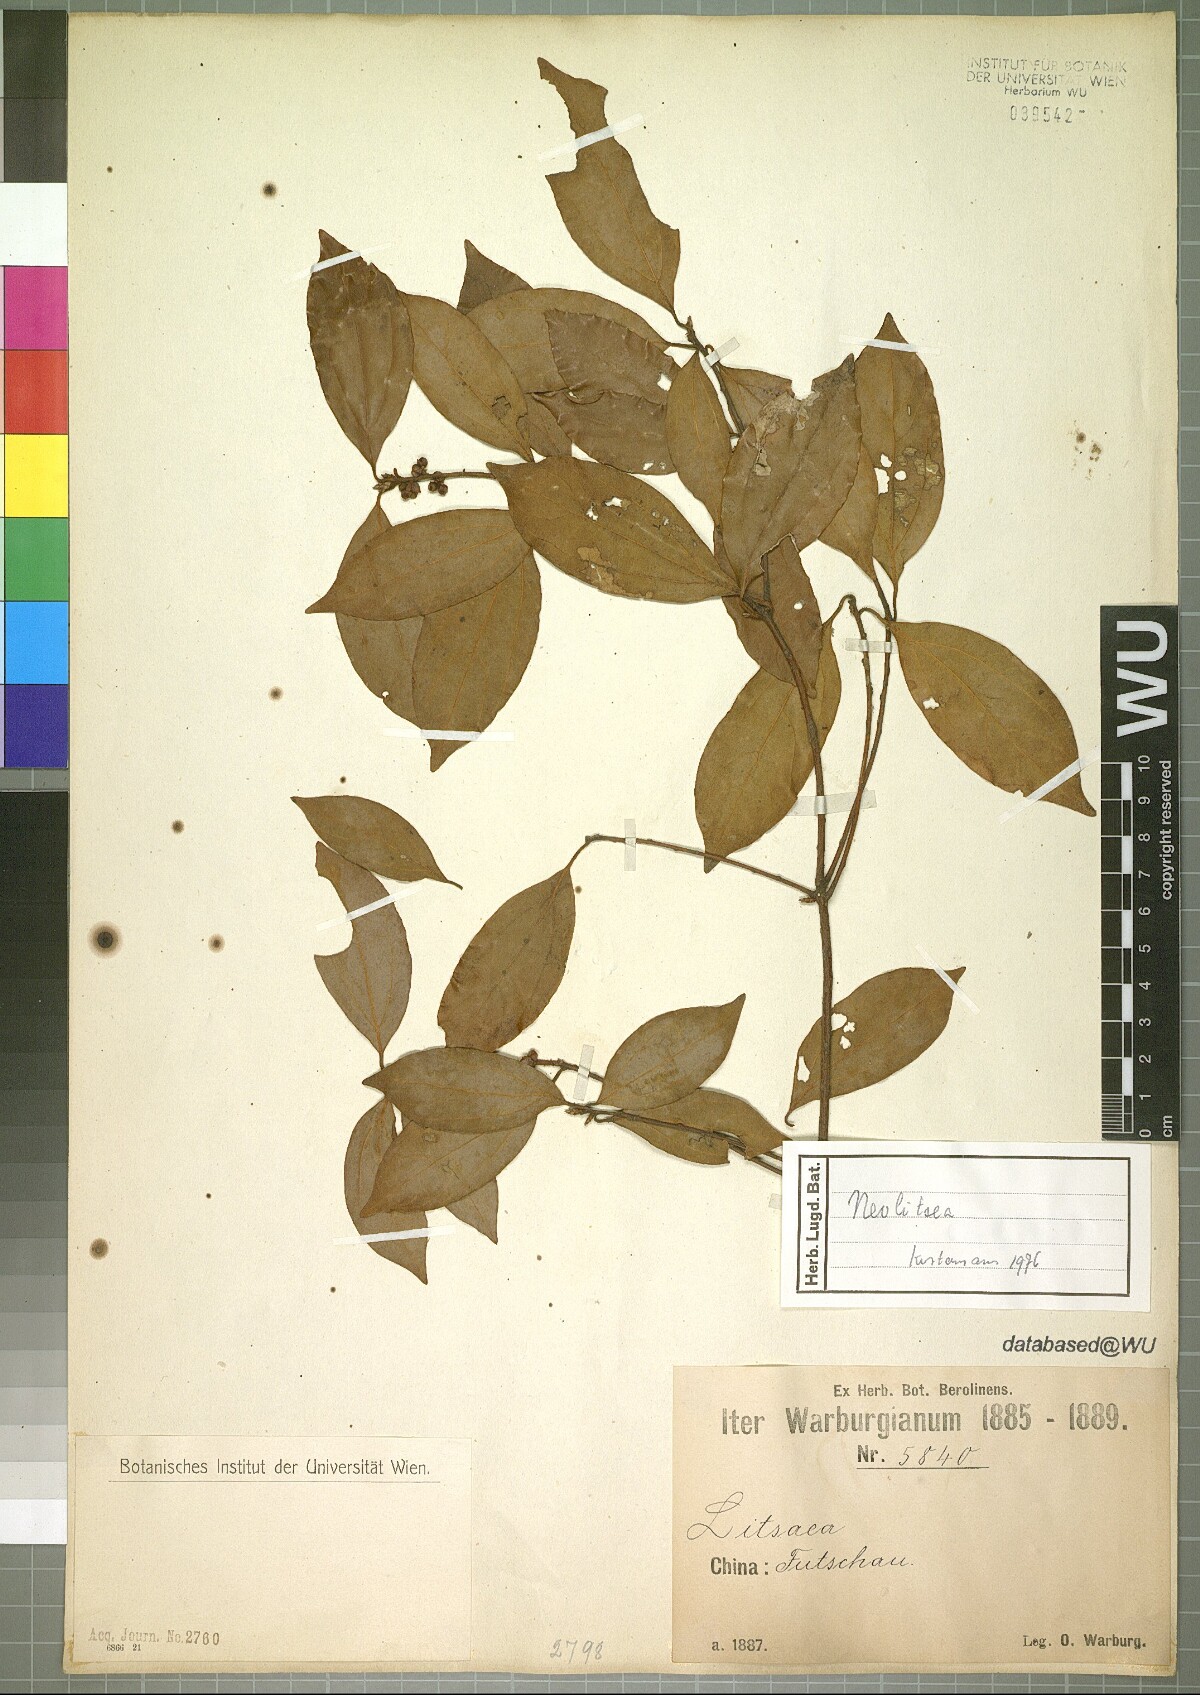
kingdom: Plantae
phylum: Tracheophyta
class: Magnoliopsida
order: Laurales
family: Lauraceae
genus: Neolitsea
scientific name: Neolitsea
